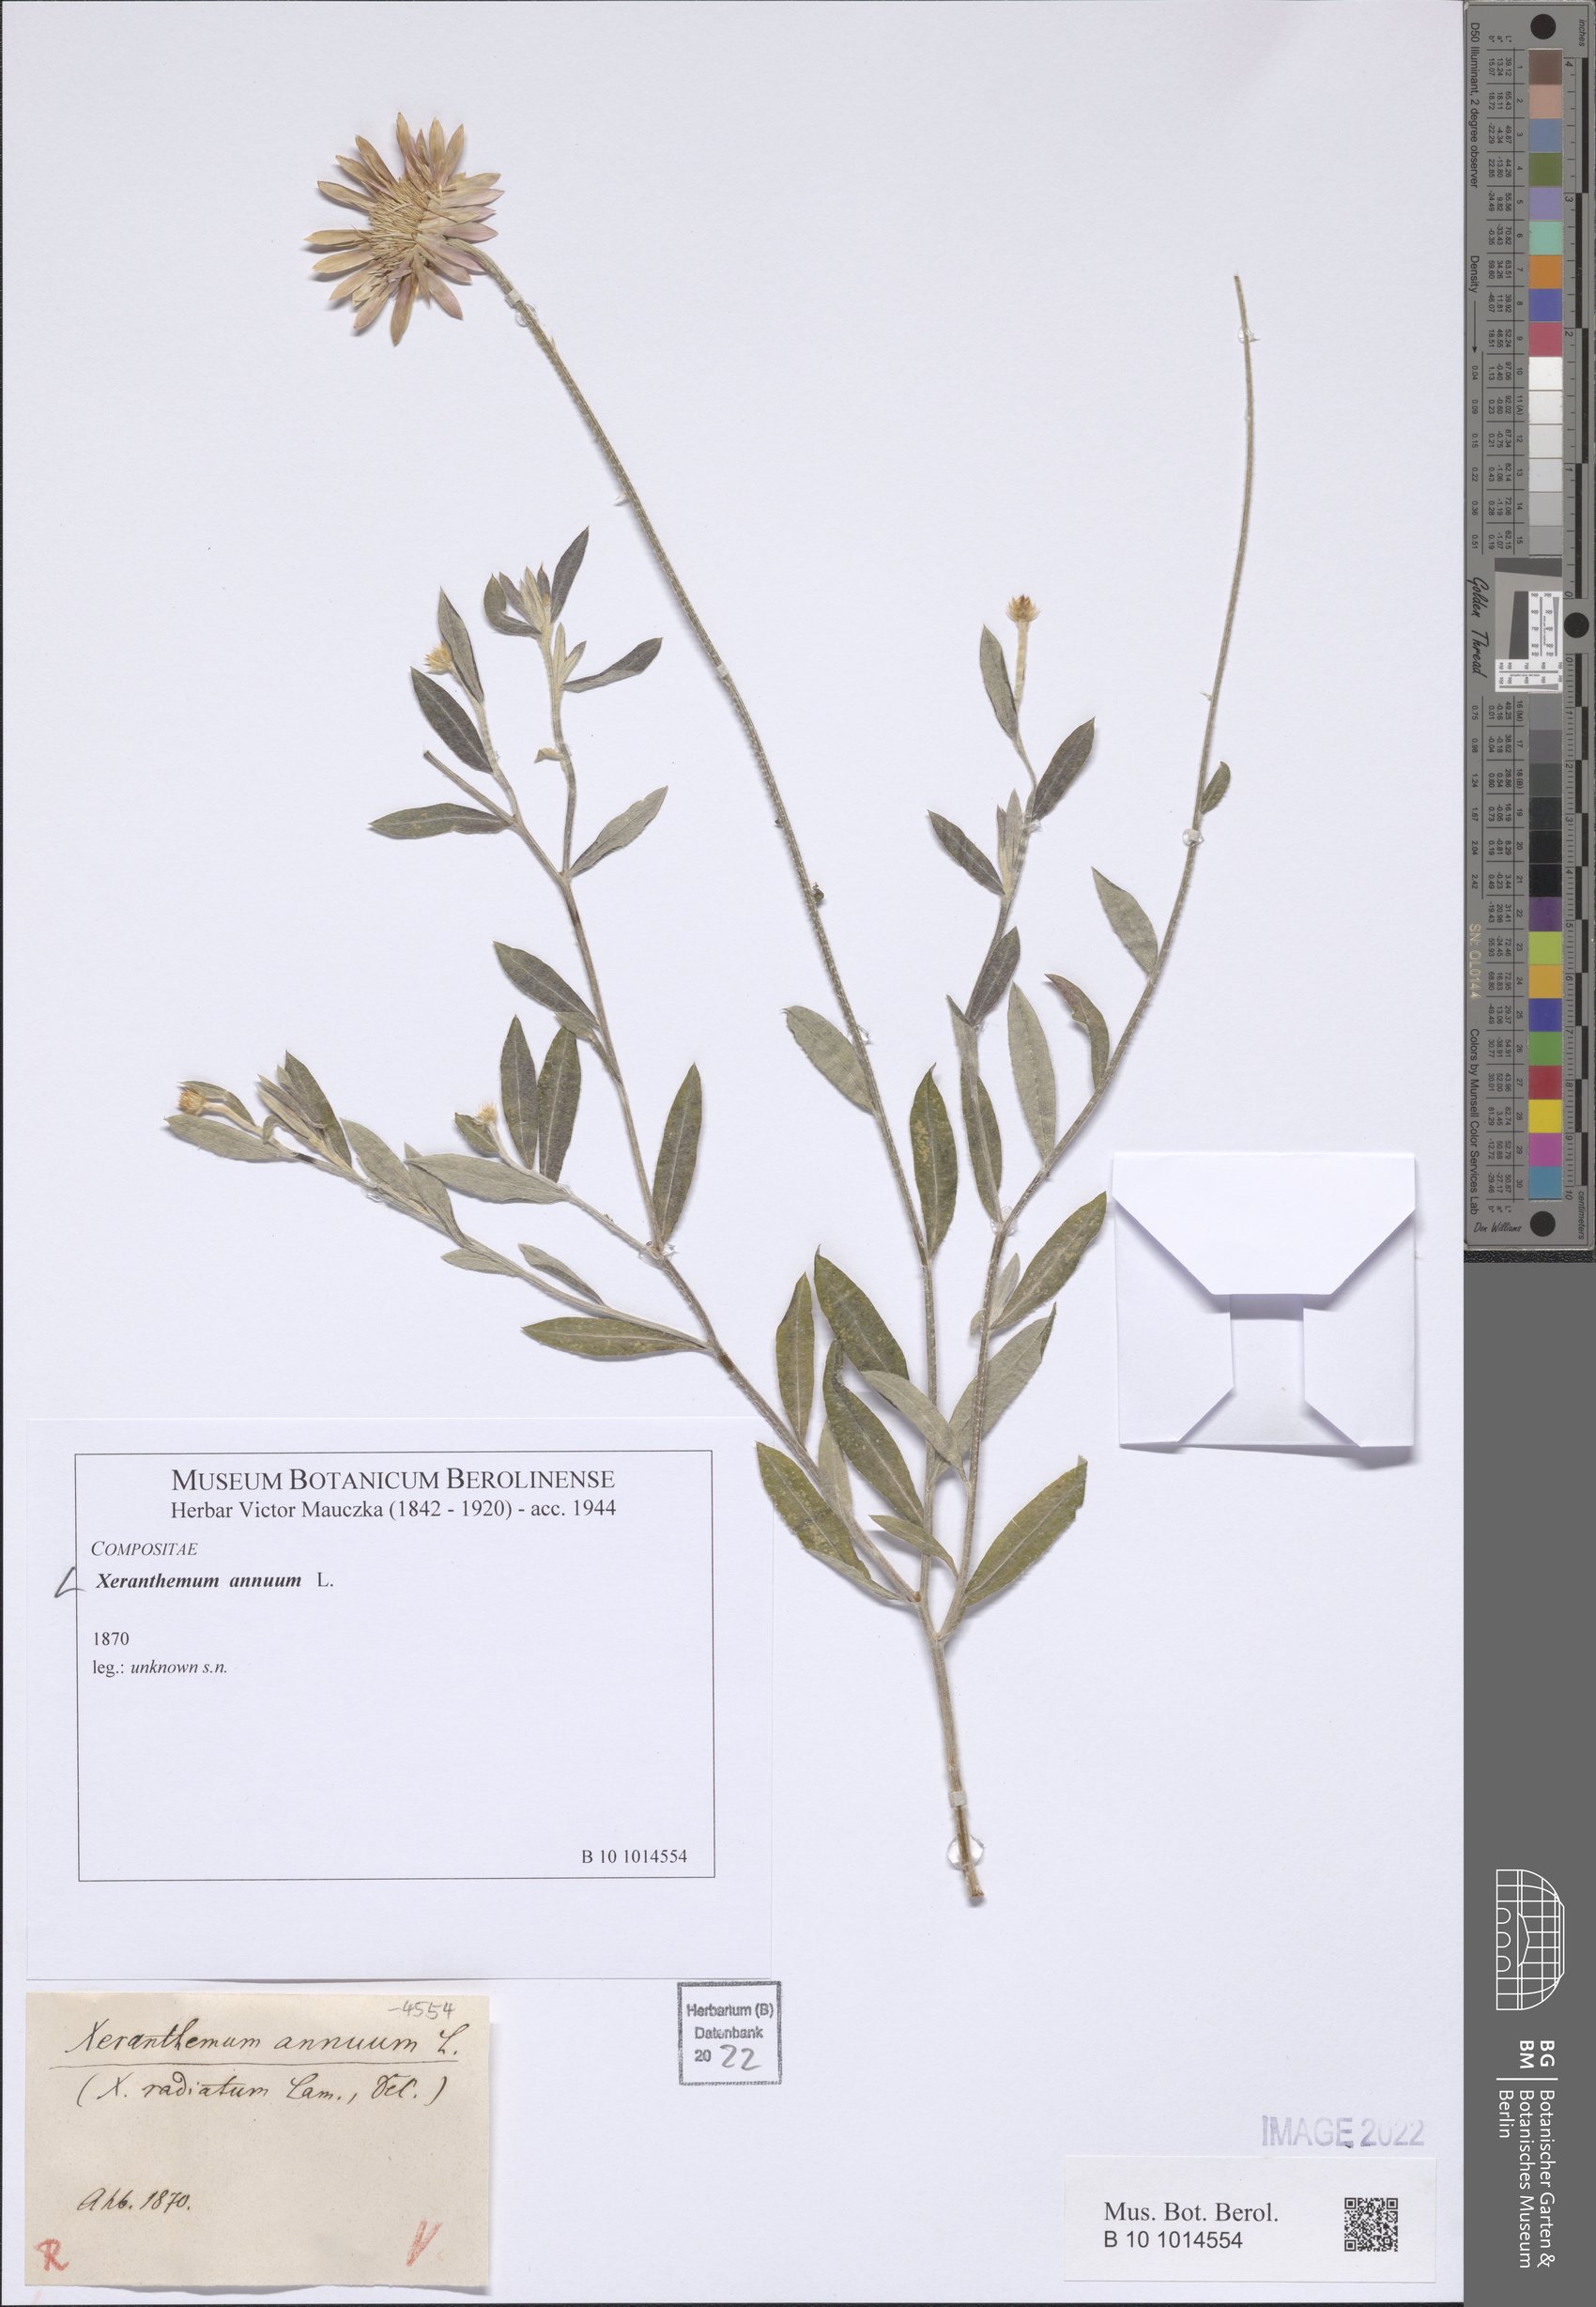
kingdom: Plantae
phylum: Tracheophyta
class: Magnoliopsida
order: Asterales
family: Asteraceae
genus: Xeranthemum
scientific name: Xeranthemum annuum
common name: Immortelle
